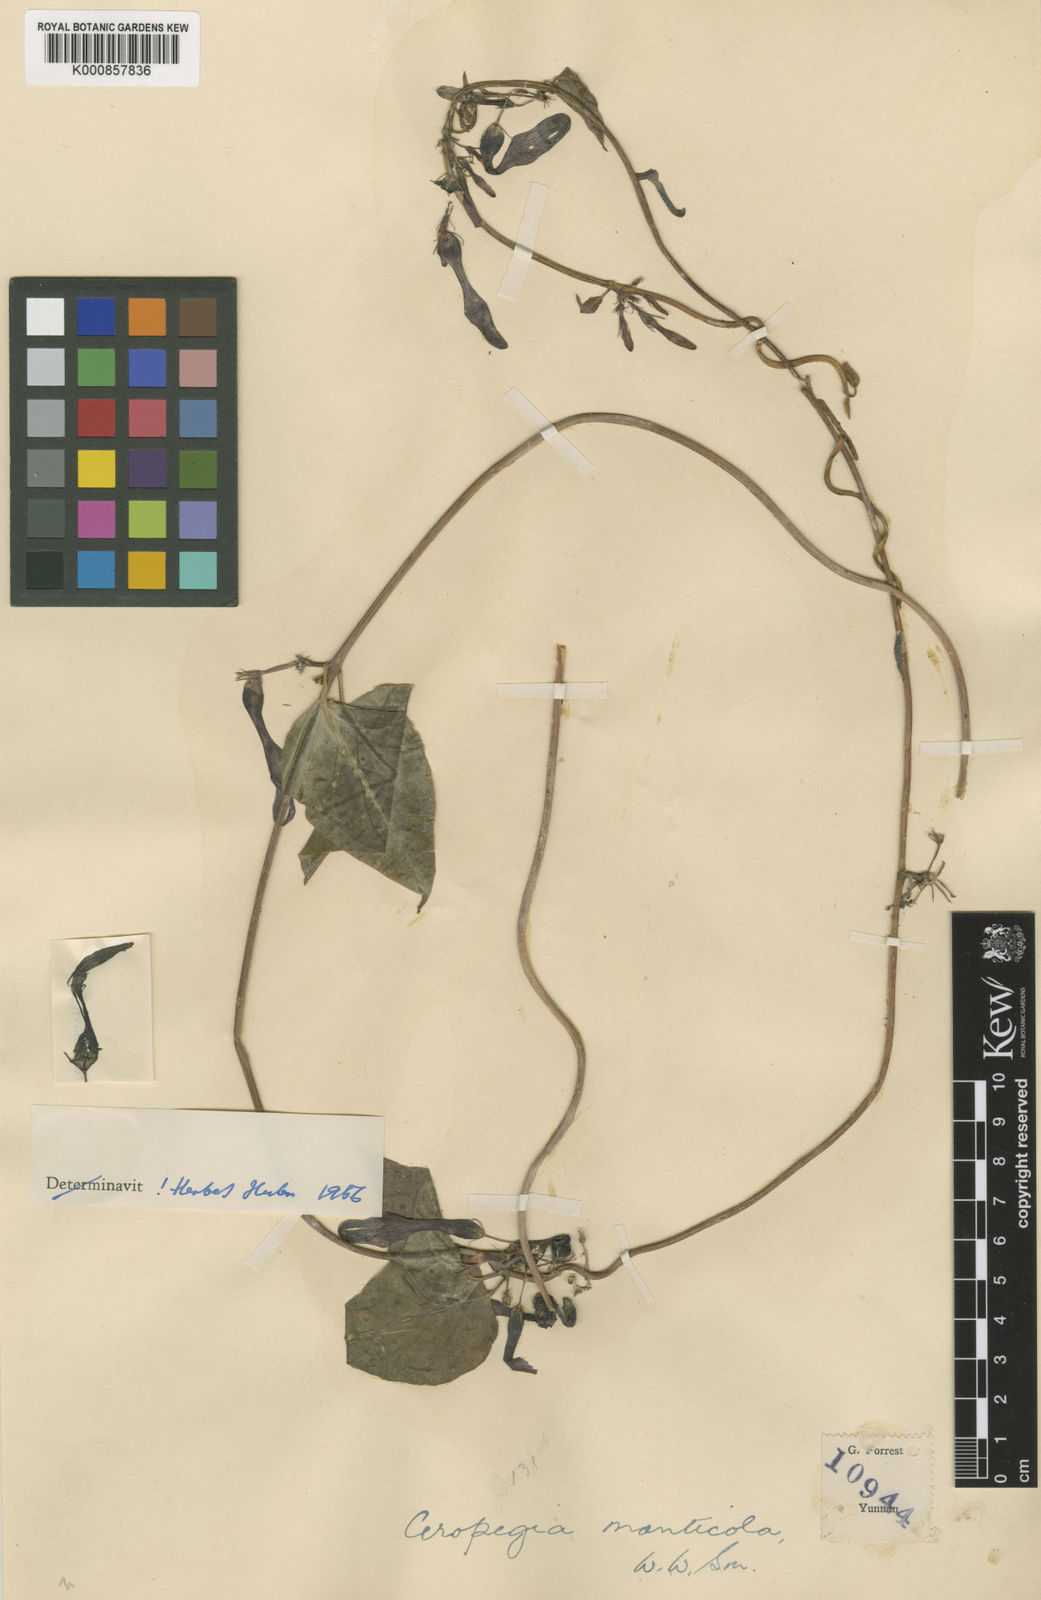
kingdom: Plantae
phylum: Tracheophyta
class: Magnoliopsida
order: Gentianales
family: Apocynaceae
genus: Ceropegia
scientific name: Ceropegia monticola
